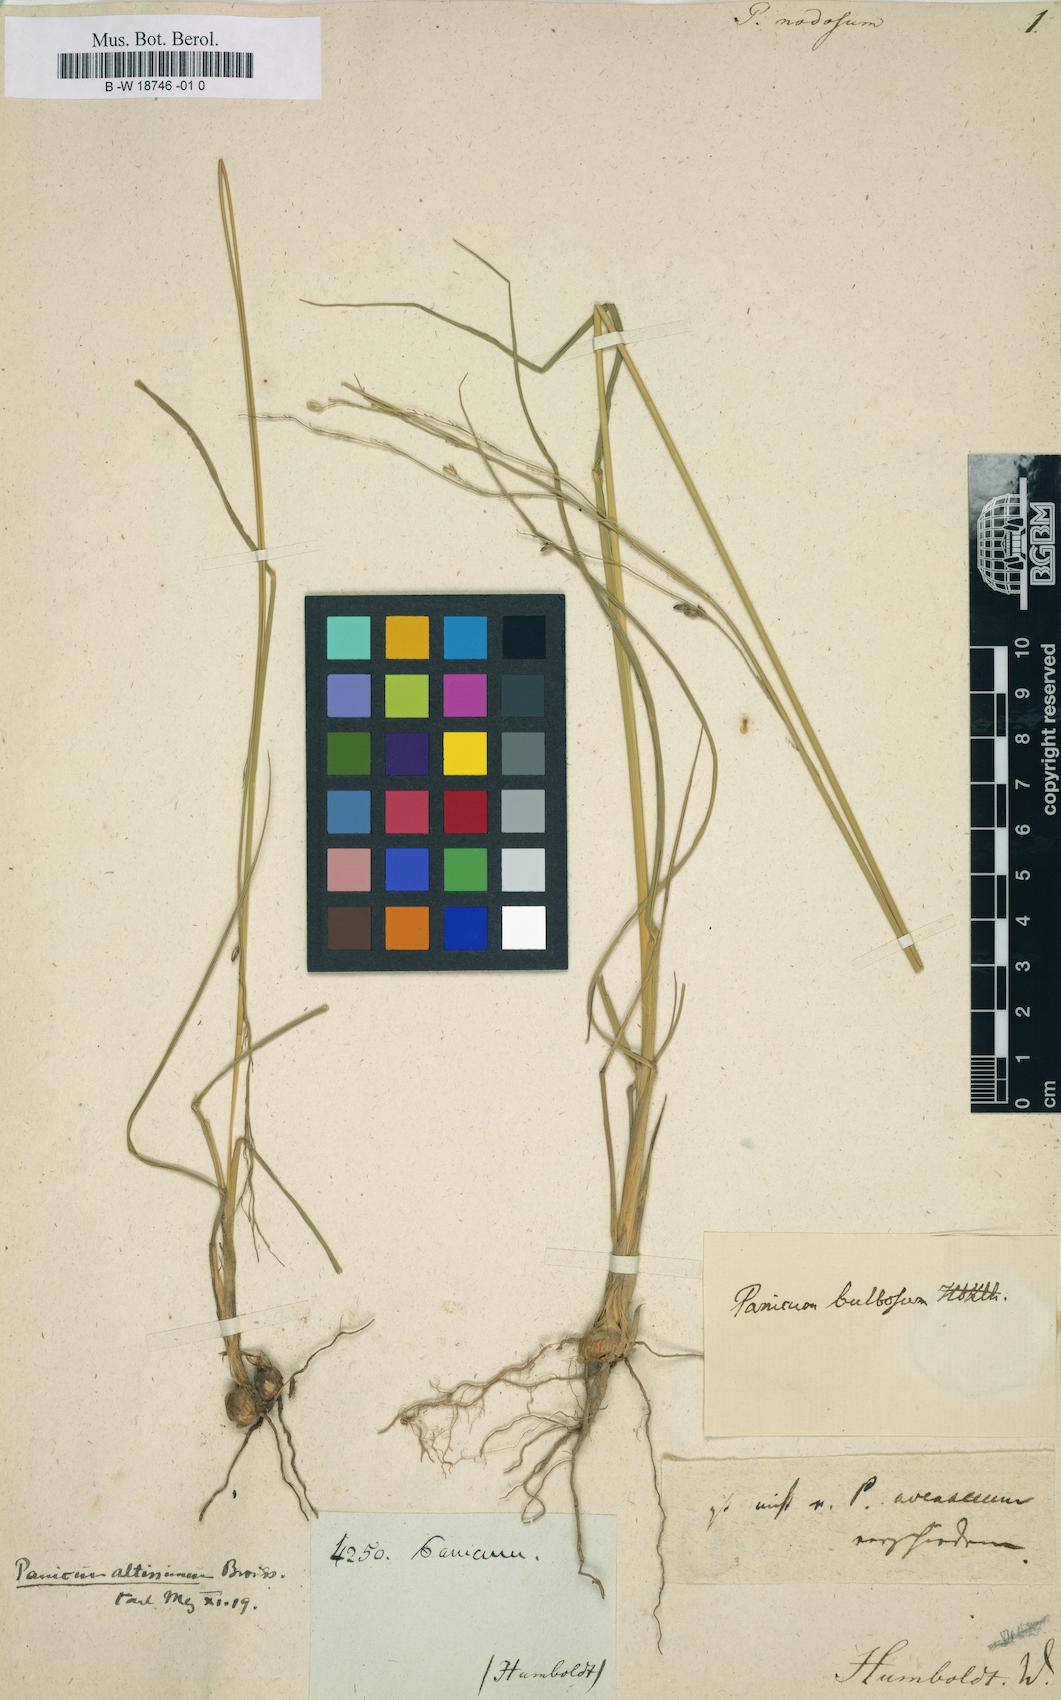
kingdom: Plantae
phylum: Tracheophyta
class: Liliopsida
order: Poales
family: Poaceae
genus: Ottochloa
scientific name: Ottochloa nodosa
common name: Slender-panic grass
